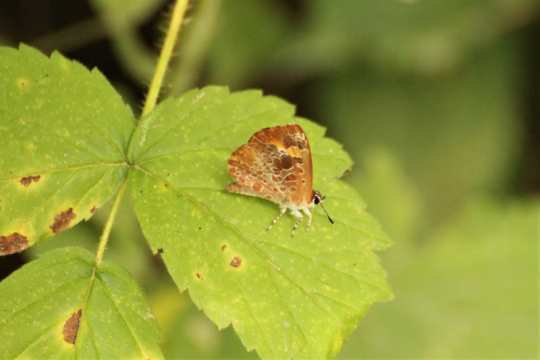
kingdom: Animalia
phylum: Arthropoda
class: Insecta
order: Lepidoptera
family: Lycaenidae
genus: Feniseca
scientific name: Feniseca tarquinius
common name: Harvester
